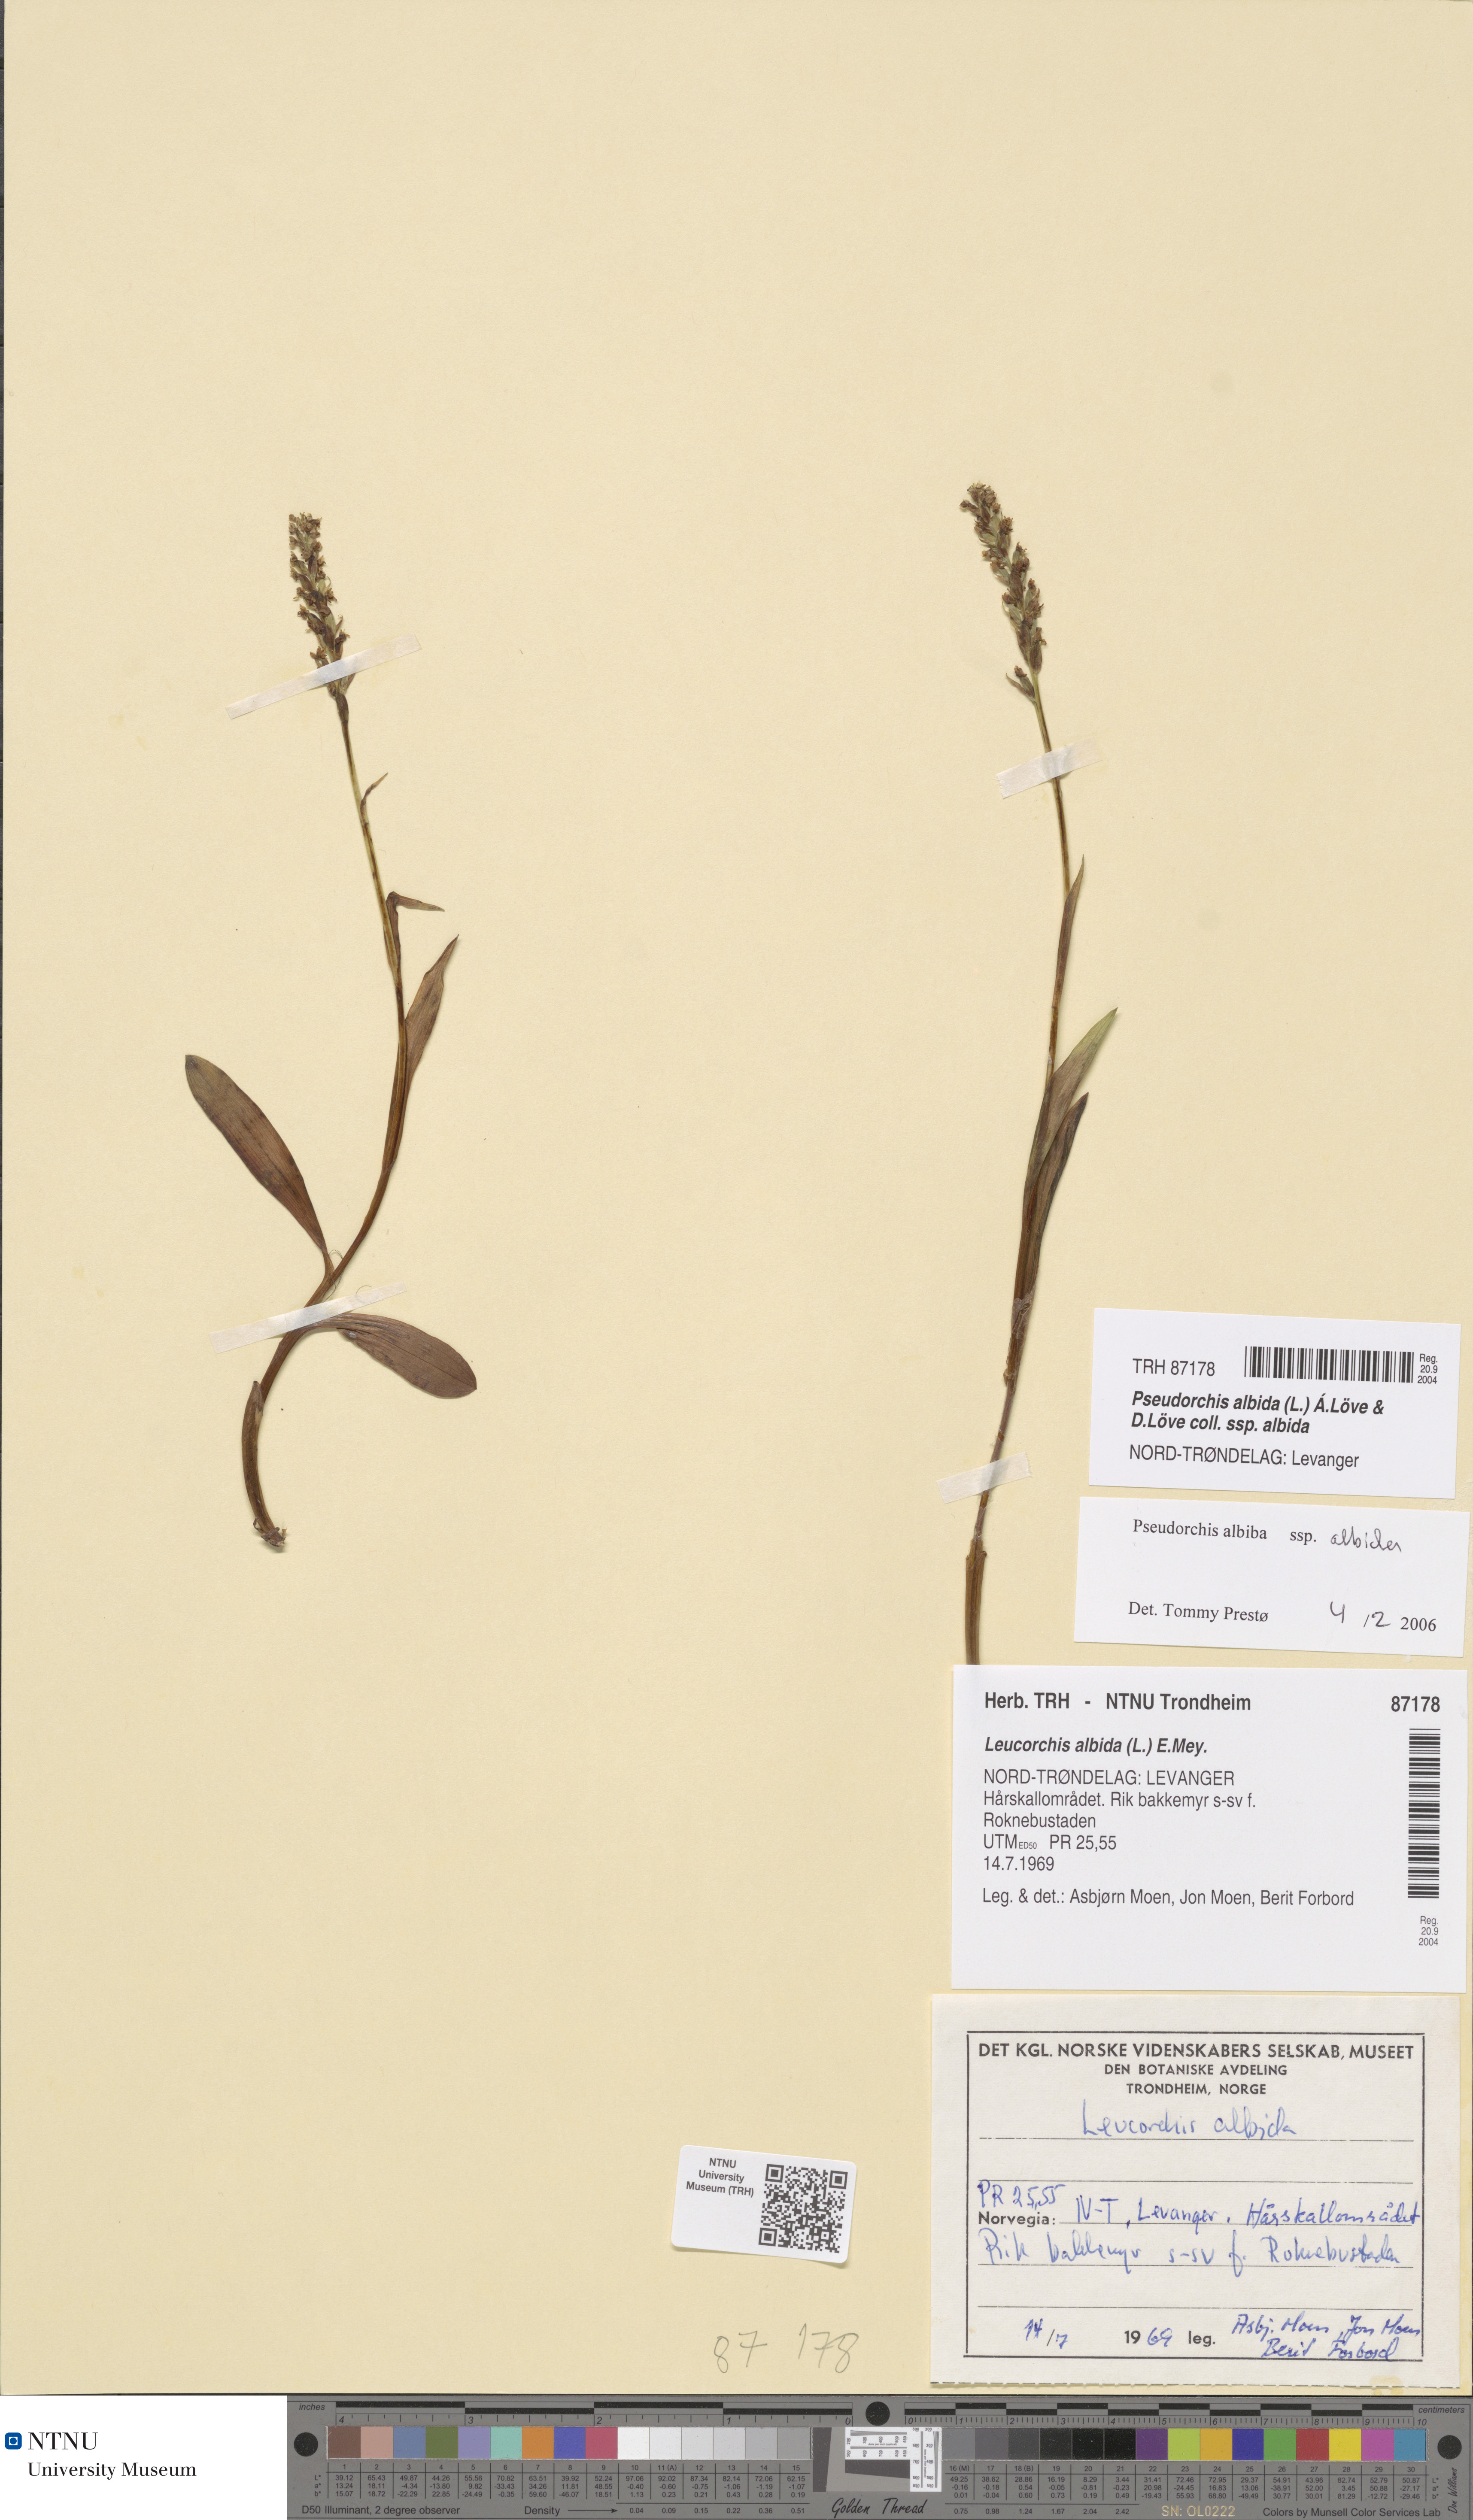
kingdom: Plantae
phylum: Tracheophyta
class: Liliopsida
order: Asparagales
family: Orchidaceae
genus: Pseudorchis
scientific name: Pseudorchis albida
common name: Small-white orchid
